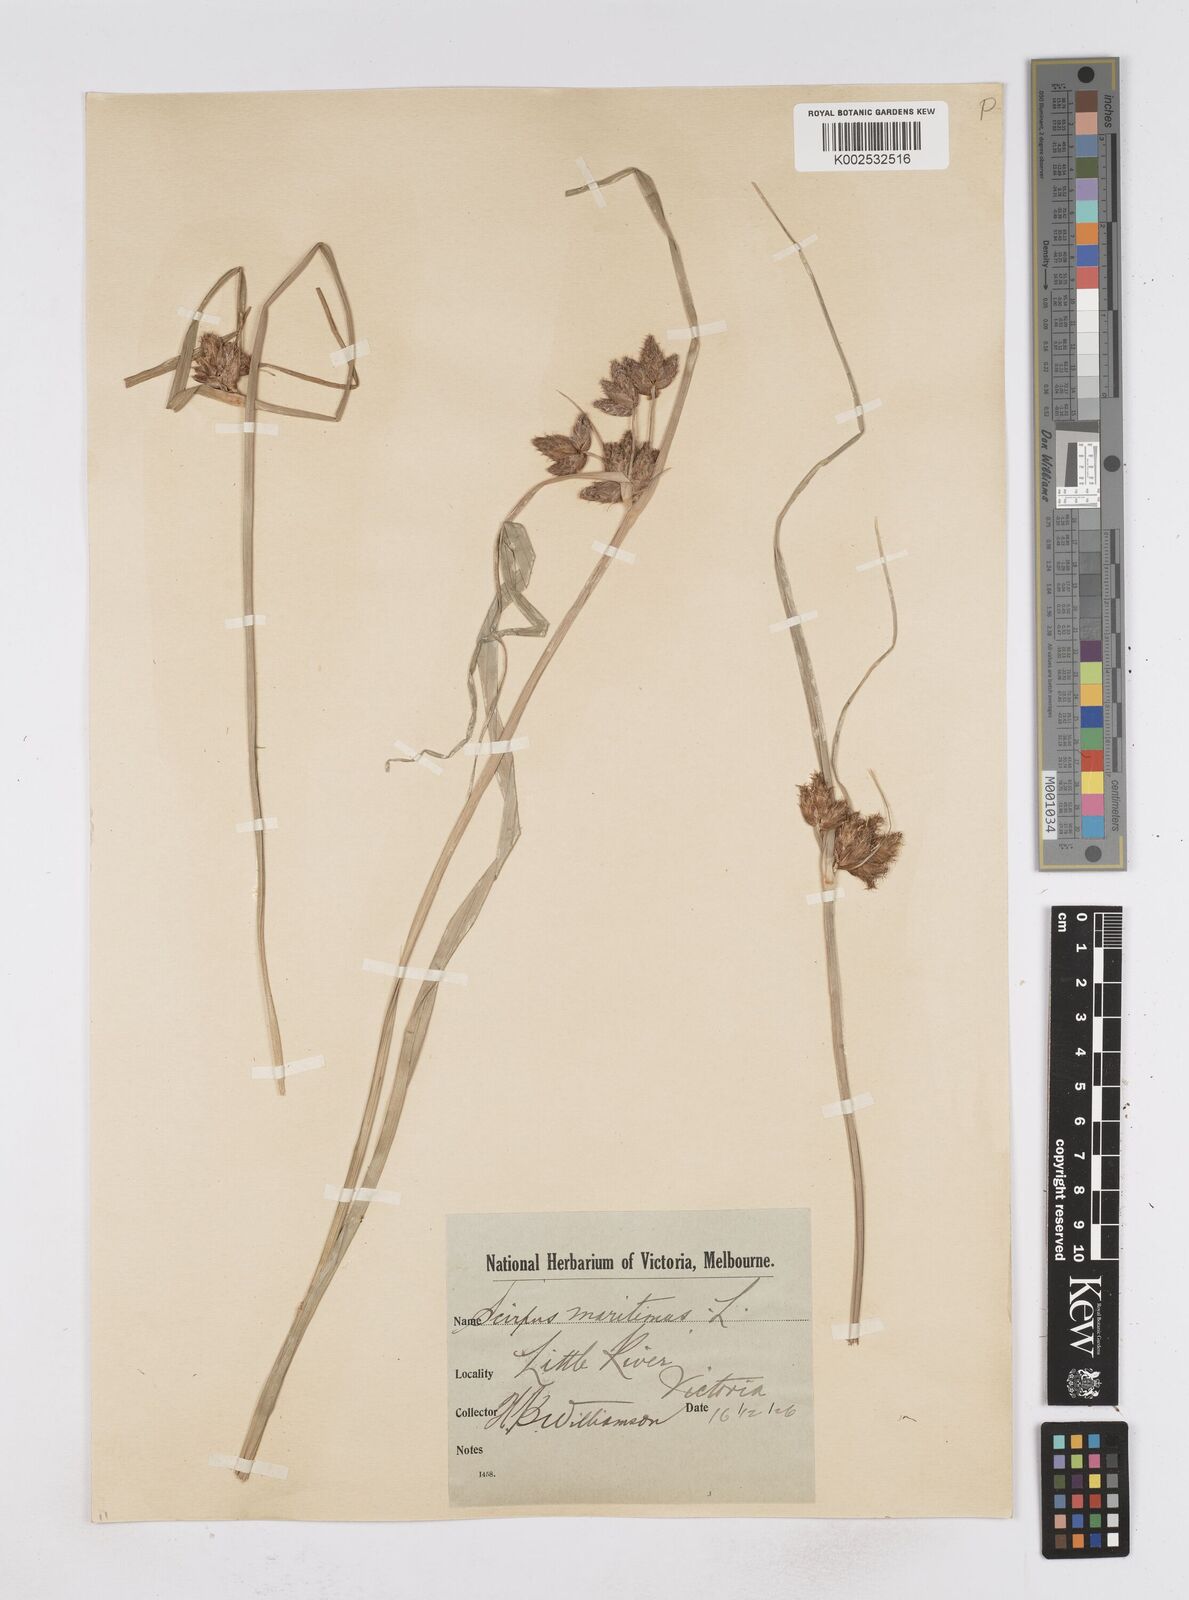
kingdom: Plantae
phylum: Tracheophyta
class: Liliopsida
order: Poales
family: Cyperaceae
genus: Bolboschoenus
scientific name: Bolboschoenus maritimus
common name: Sea club-rush
